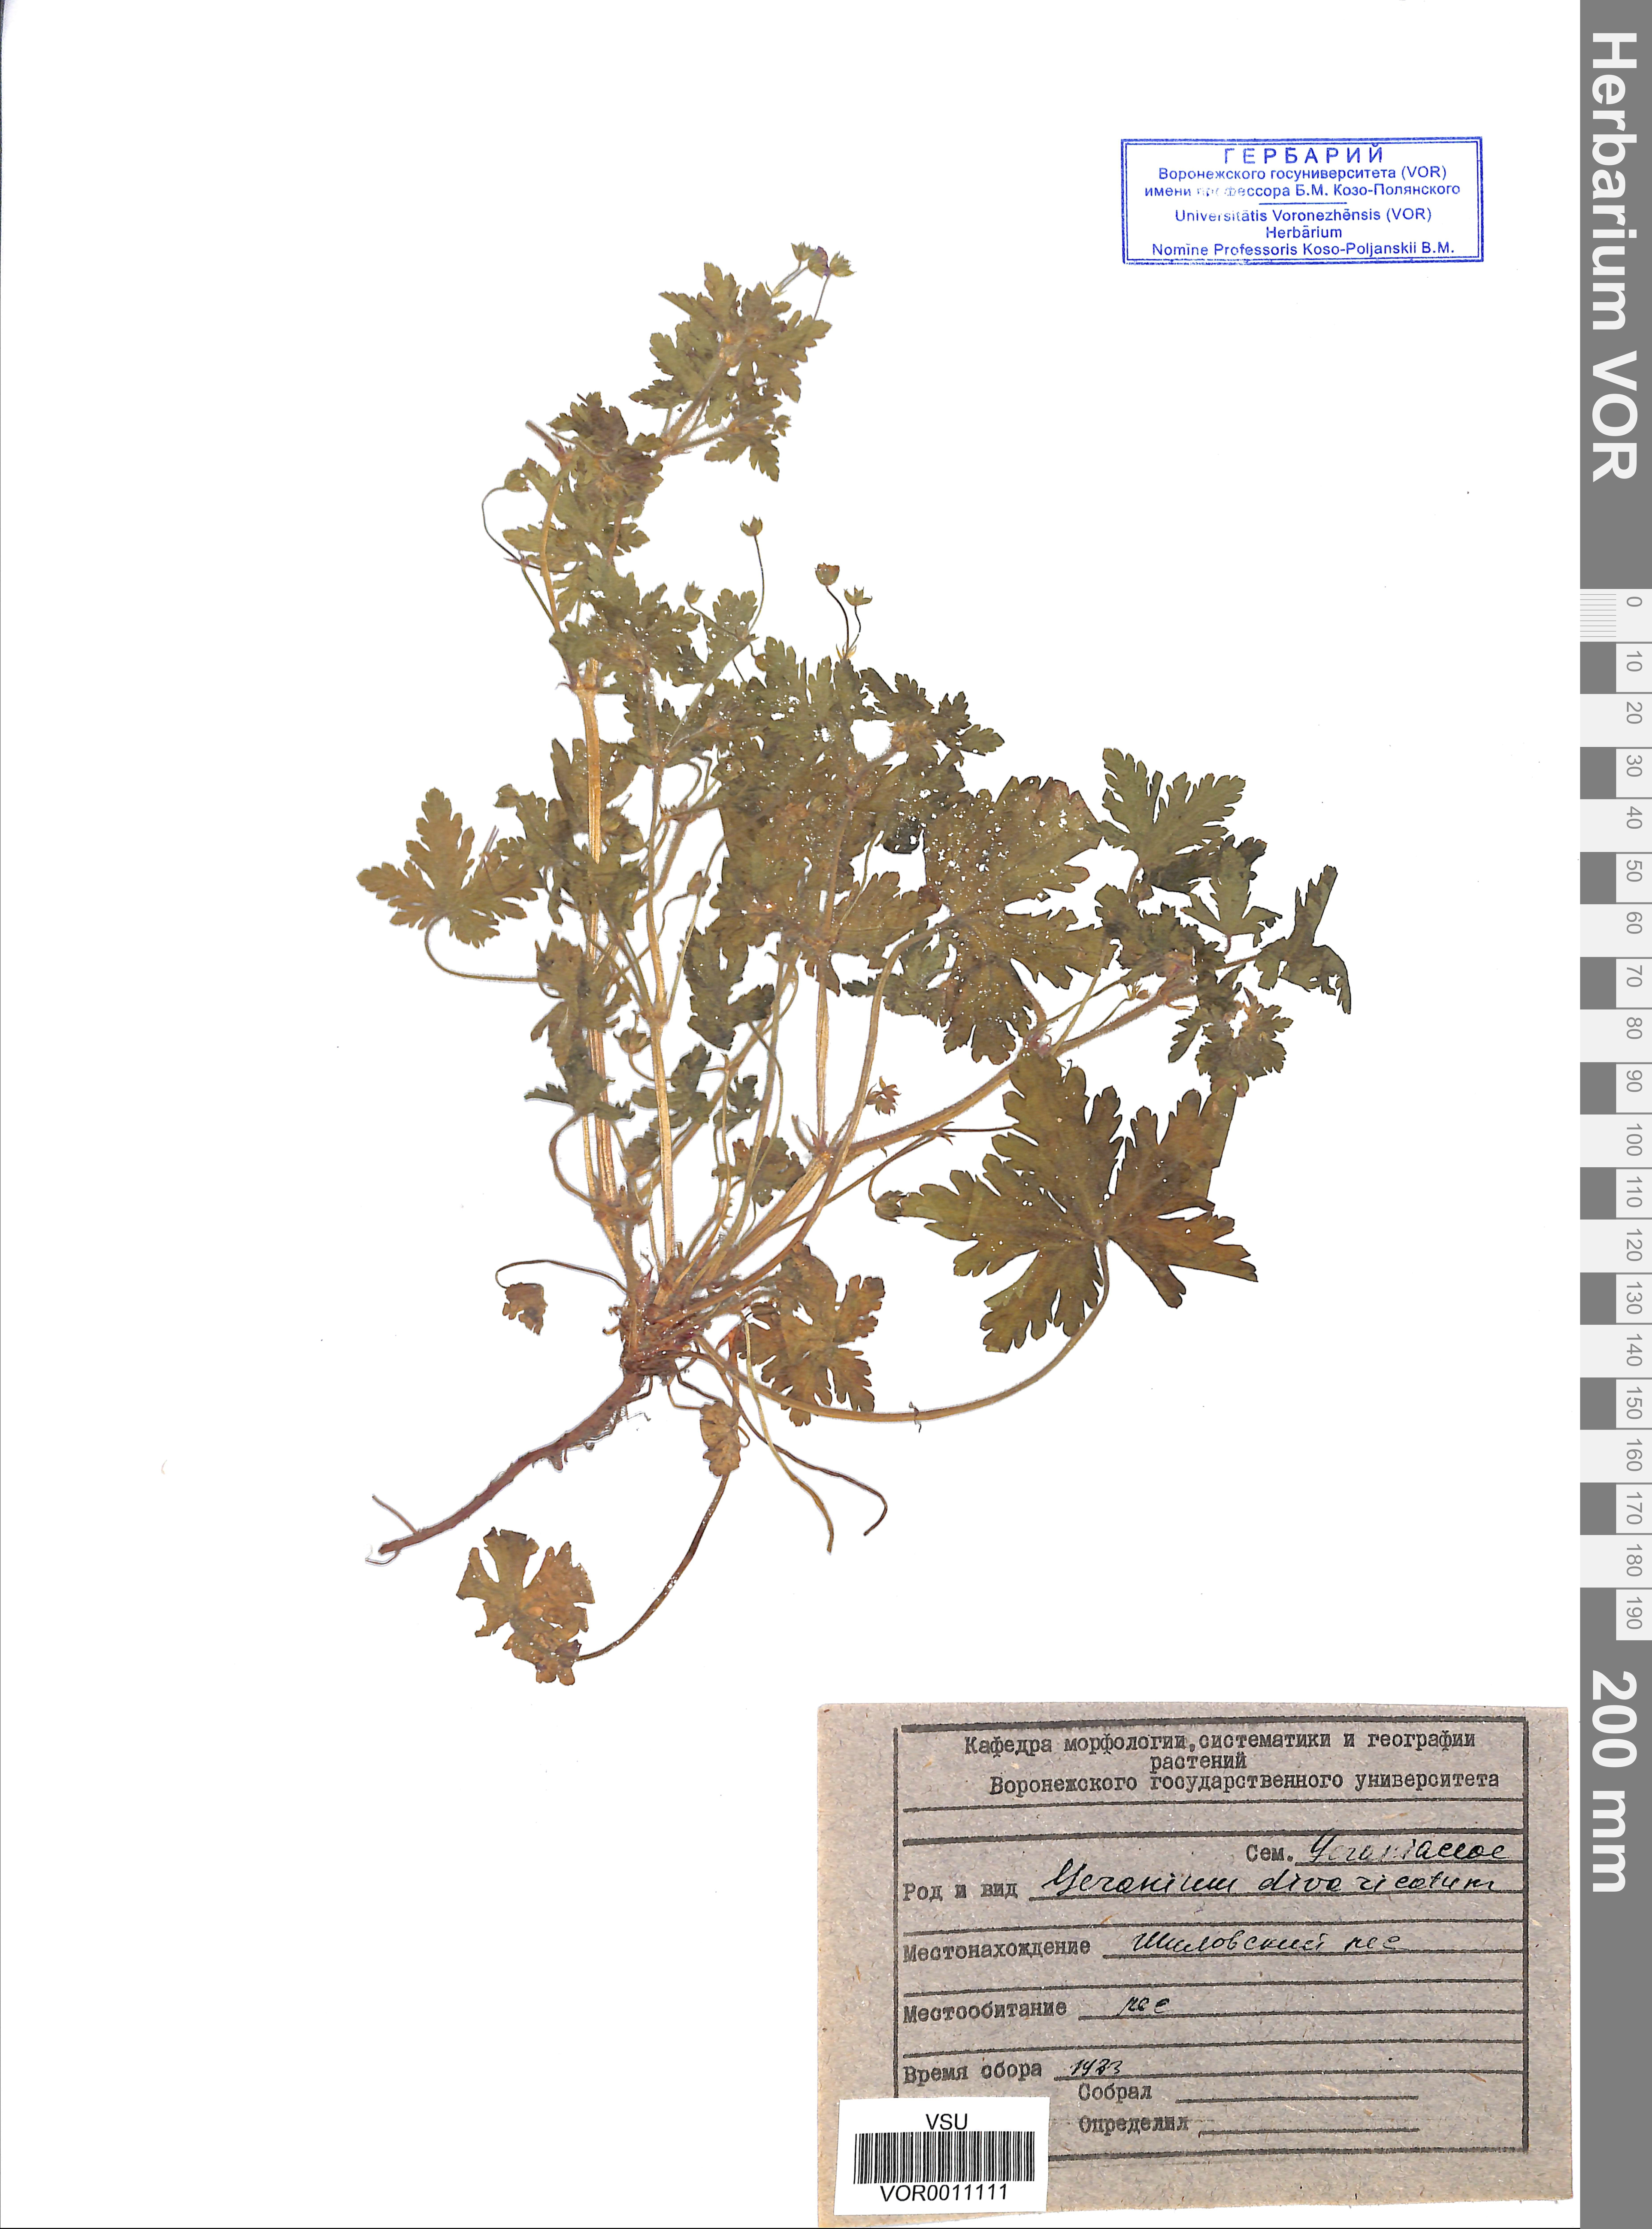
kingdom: Plantae
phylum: Tracheophyta
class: Magnoliopsida
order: Geraniales
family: Geraniaceae
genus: Geranium
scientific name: Geranium divaricatum
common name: Spreading crane's-bill
